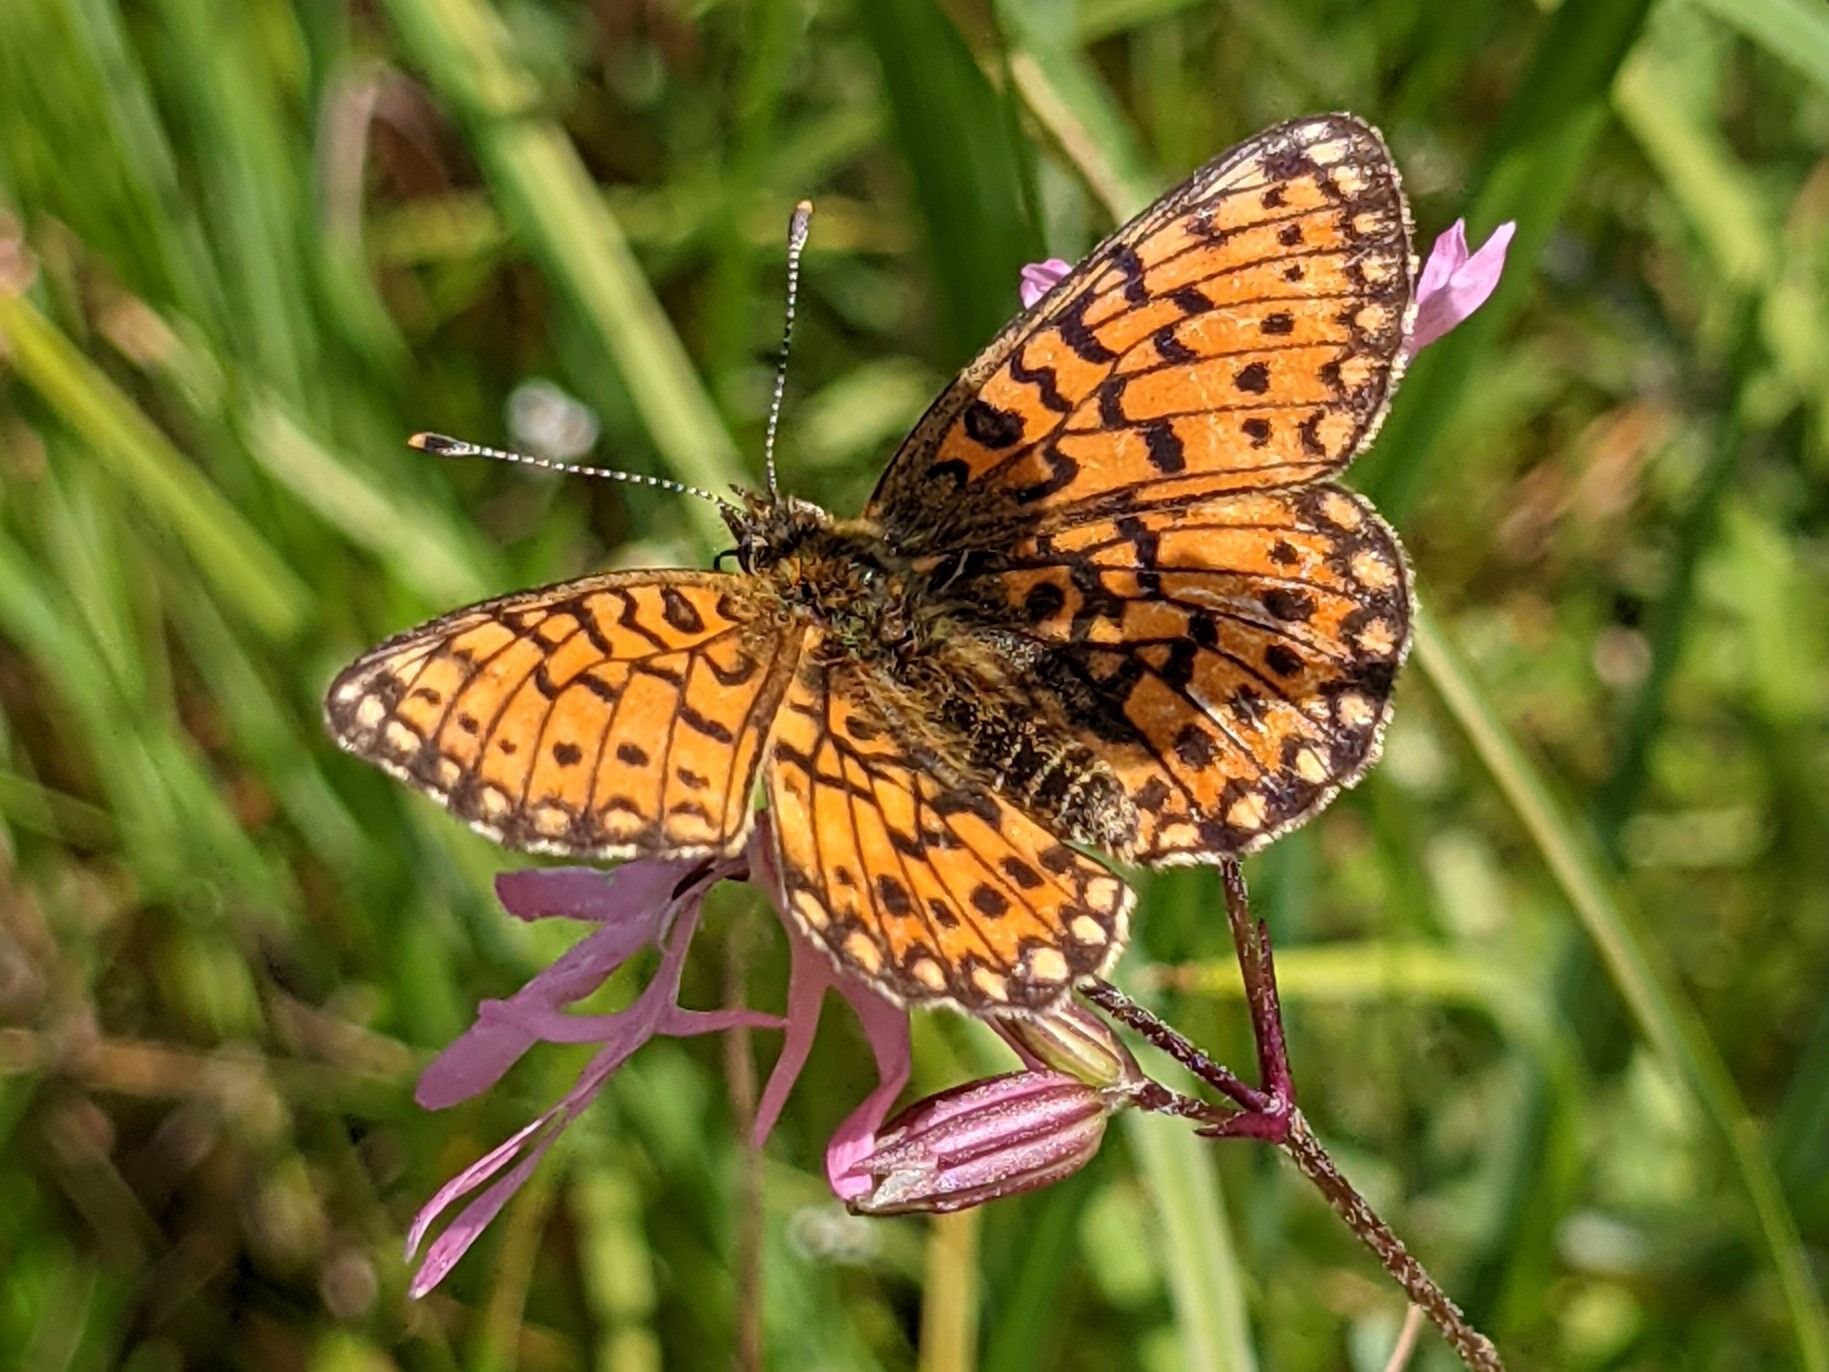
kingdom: Animalia
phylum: Arthropoda
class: Insecta
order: Lepidoptera
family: Nymphalidae
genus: Boloria
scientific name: Boloria selene
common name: Brunlig perlemorsommerfugl
